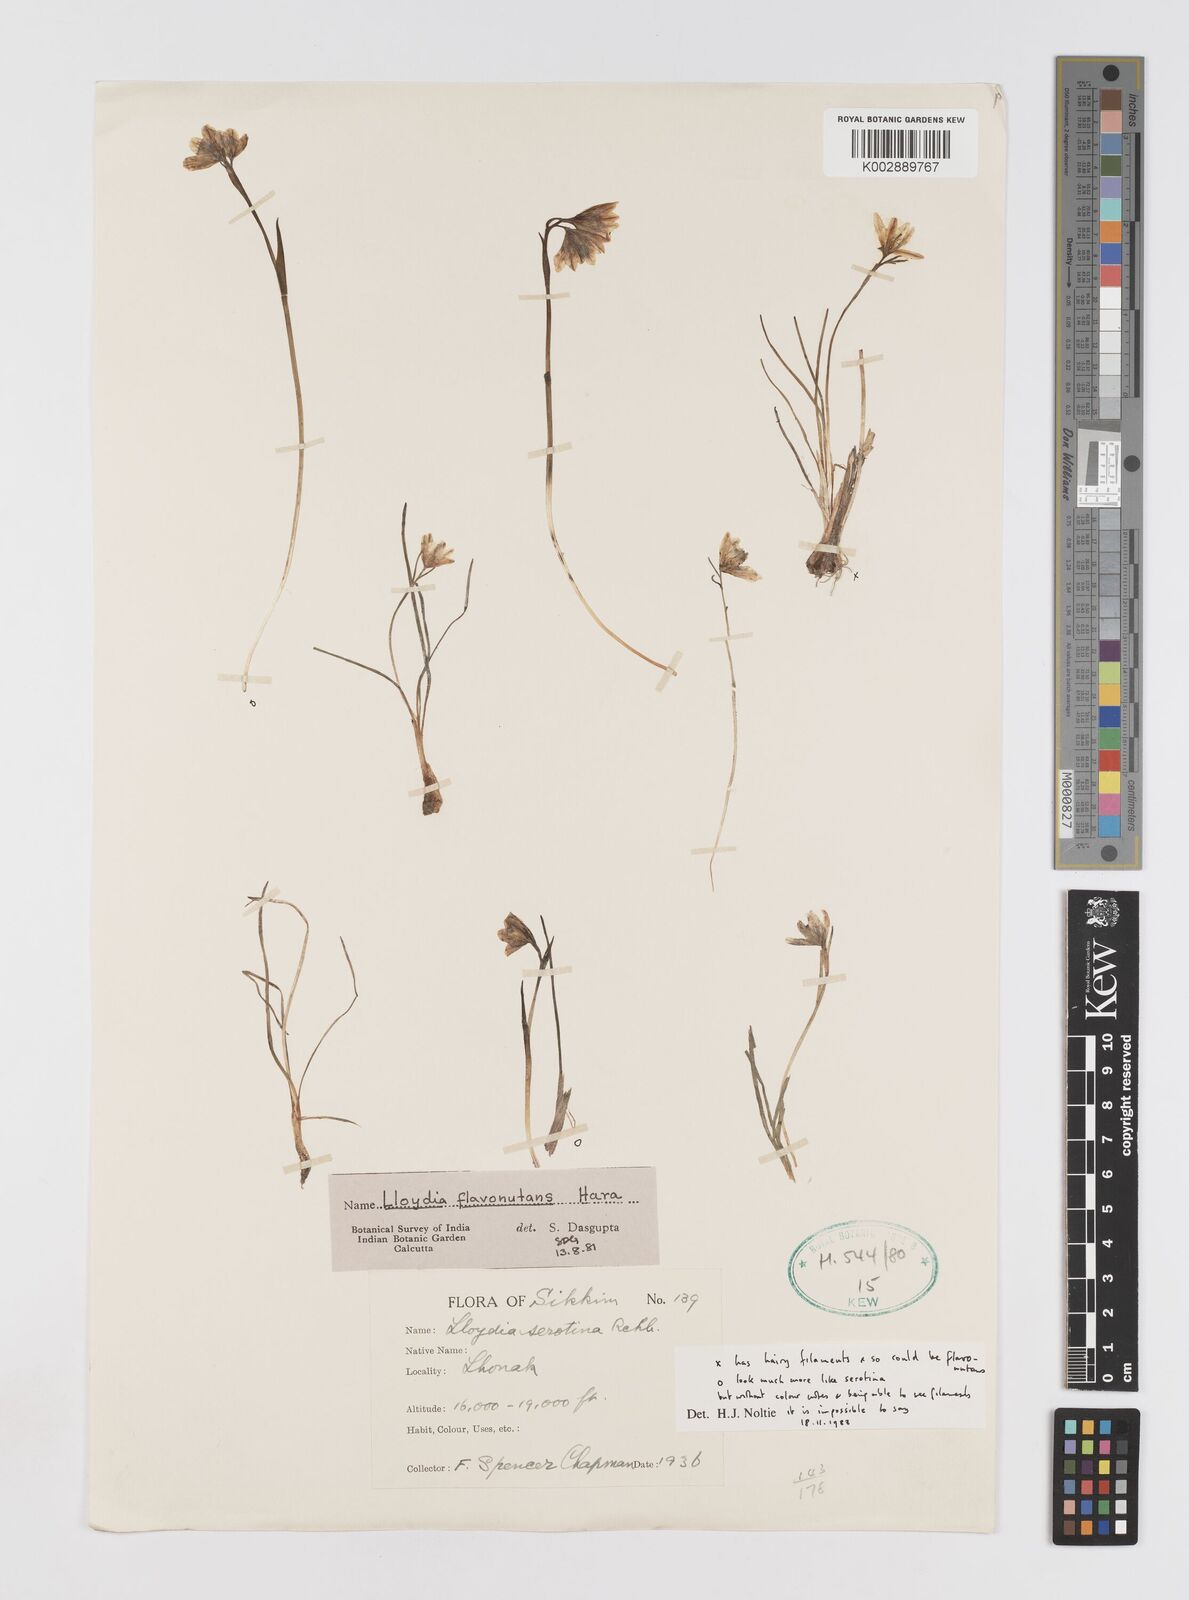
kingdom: Plantae
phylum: Tracheophyta
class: Liliopsida
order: Liliales
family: Liliaceae
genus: Gagea
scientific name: Gagea flavonutans
